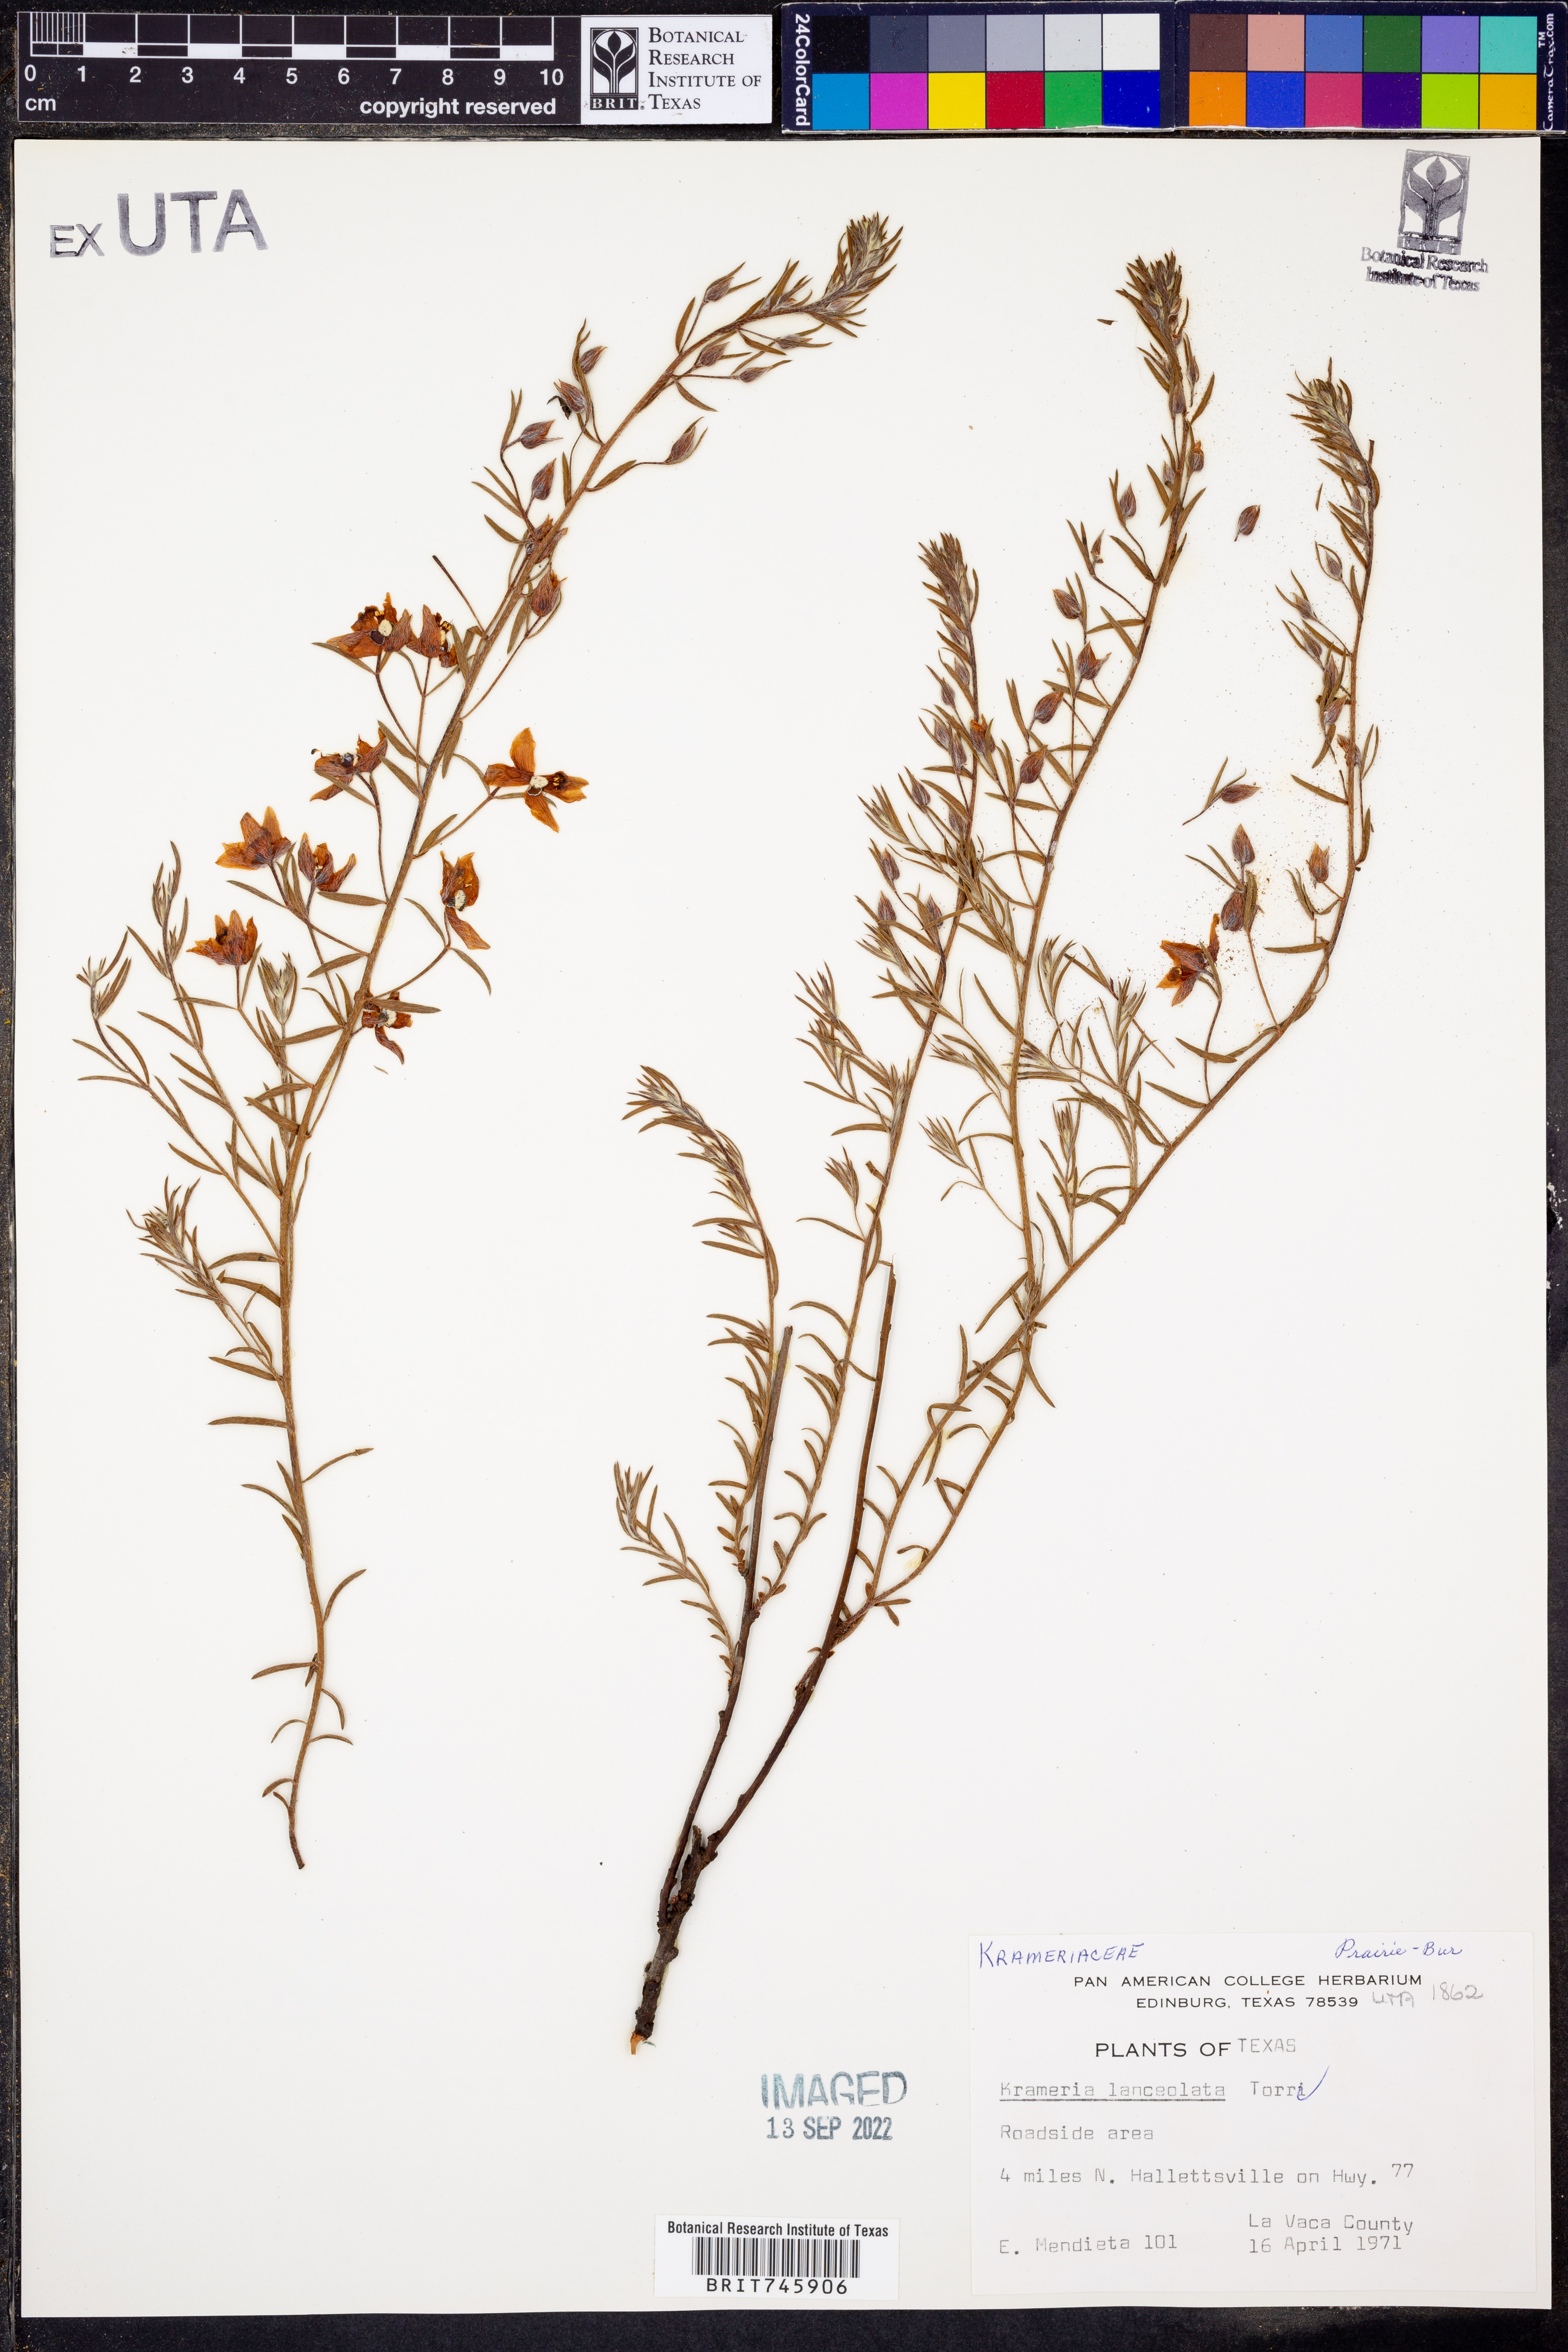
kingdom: Plantae
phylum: Tracheophyta
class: Magnoliopsida
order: Zygophyllales
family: Krameriaceae
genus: Krameria
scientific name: Krameria lanceolata
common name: Ratany
